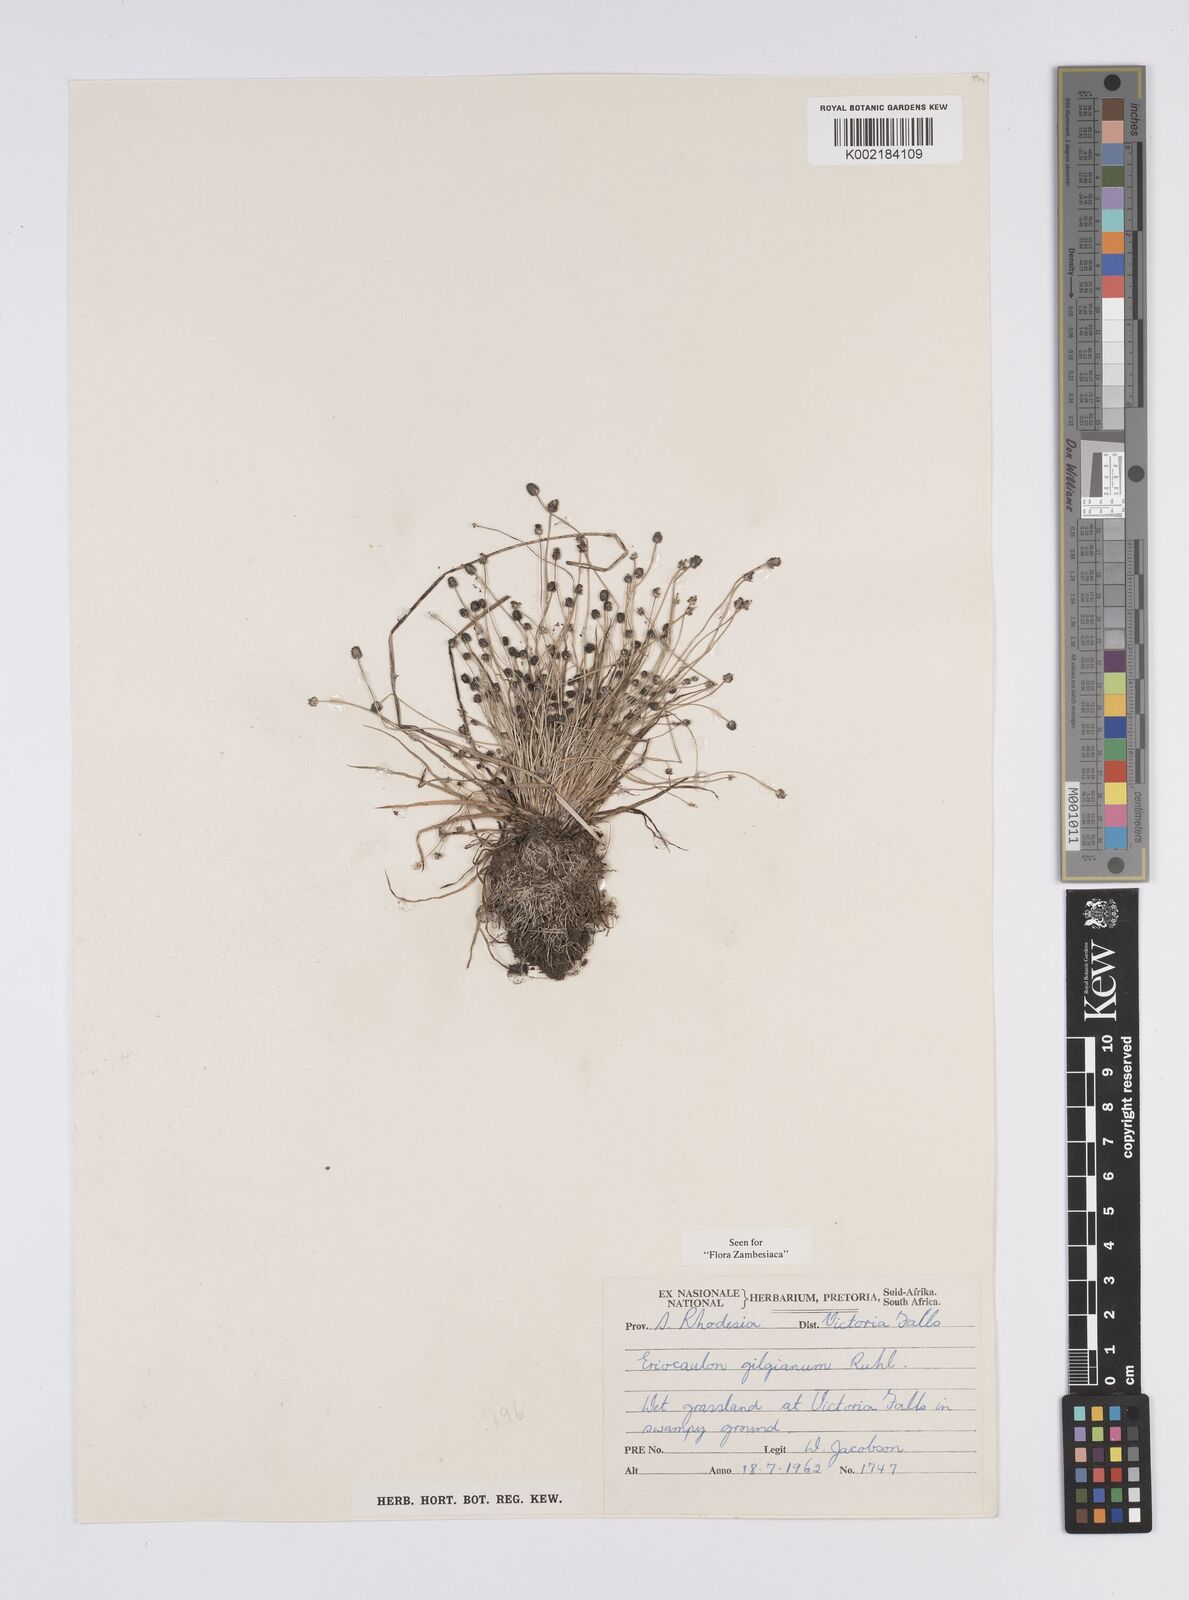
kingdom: Plantae
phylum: Tracheophyta
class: Liliopsida
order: Poales
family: Eriocaulaceae
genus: Eriocaulon
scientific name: Eriocaulon abyssinicum
